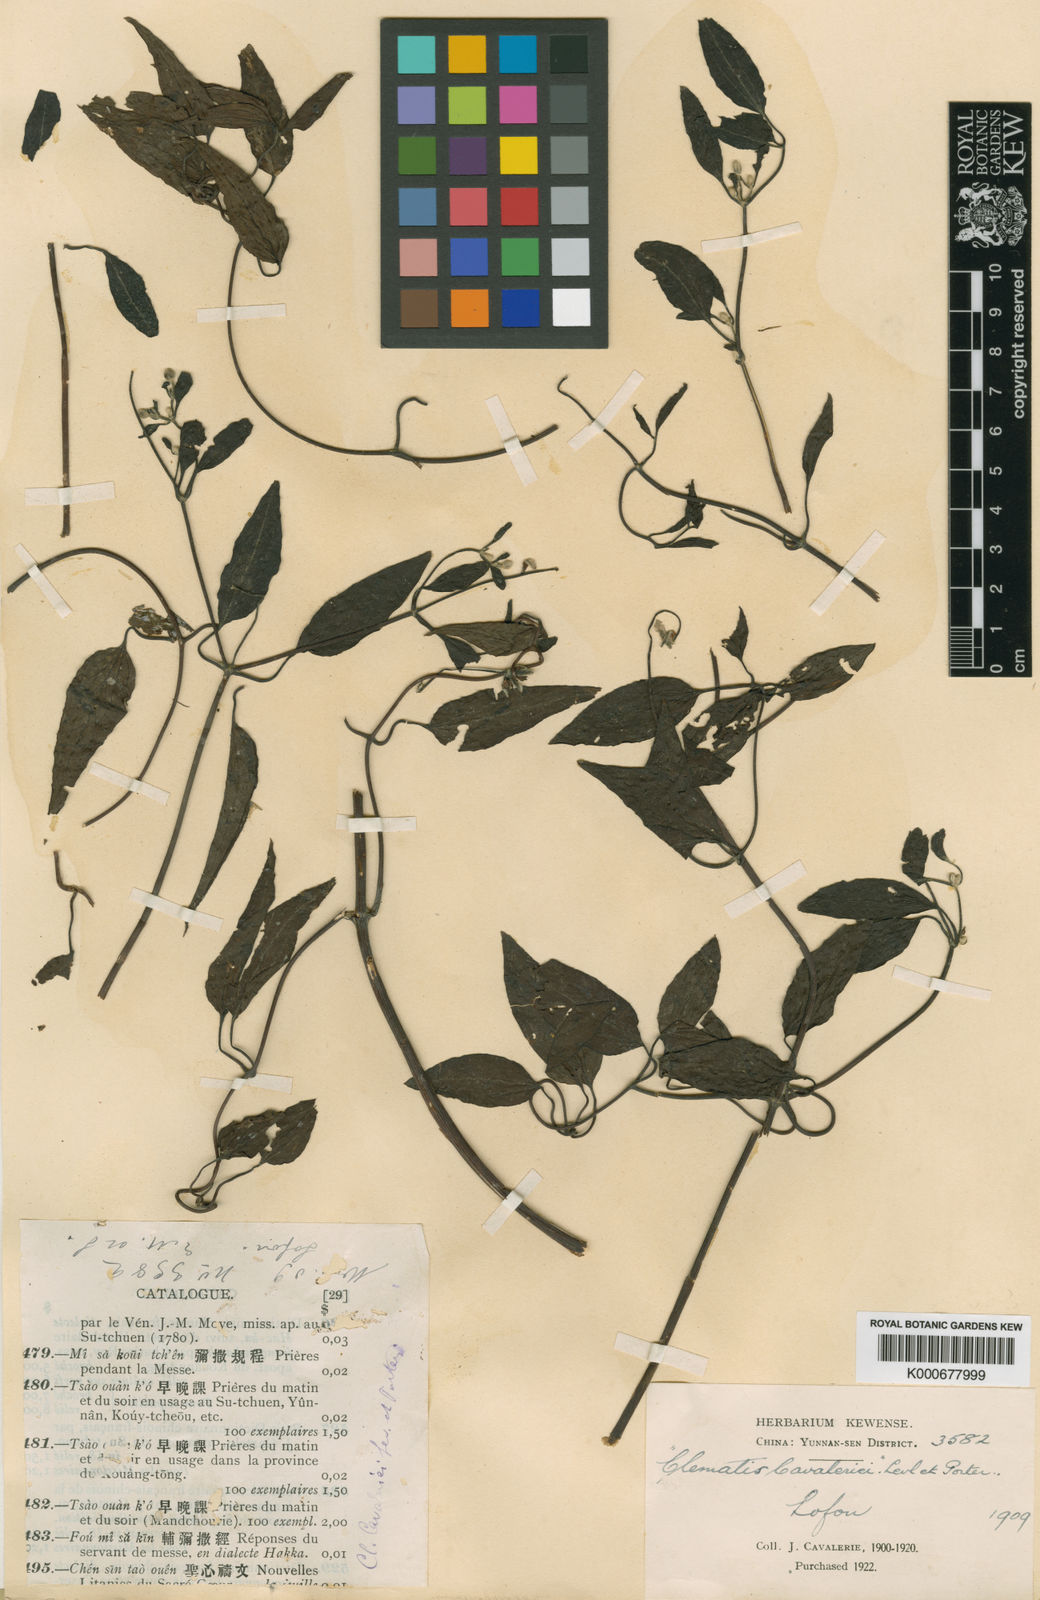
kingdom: Plantae
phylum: Tracheophyta
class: Magnoliopsida
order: Ranunculales
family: Ranunculaceae
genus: Clematis
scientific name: Clematis chinensis
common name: Chinese clematis
